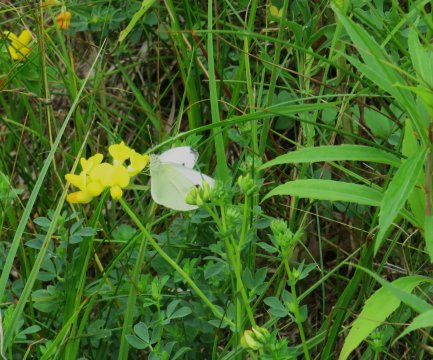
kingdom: Animalia
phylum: Arthropoda
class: Insecta
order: Lepidoptera
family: Pieridae
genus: Pieris
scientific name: Pieris rapae
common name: Cabbage White
